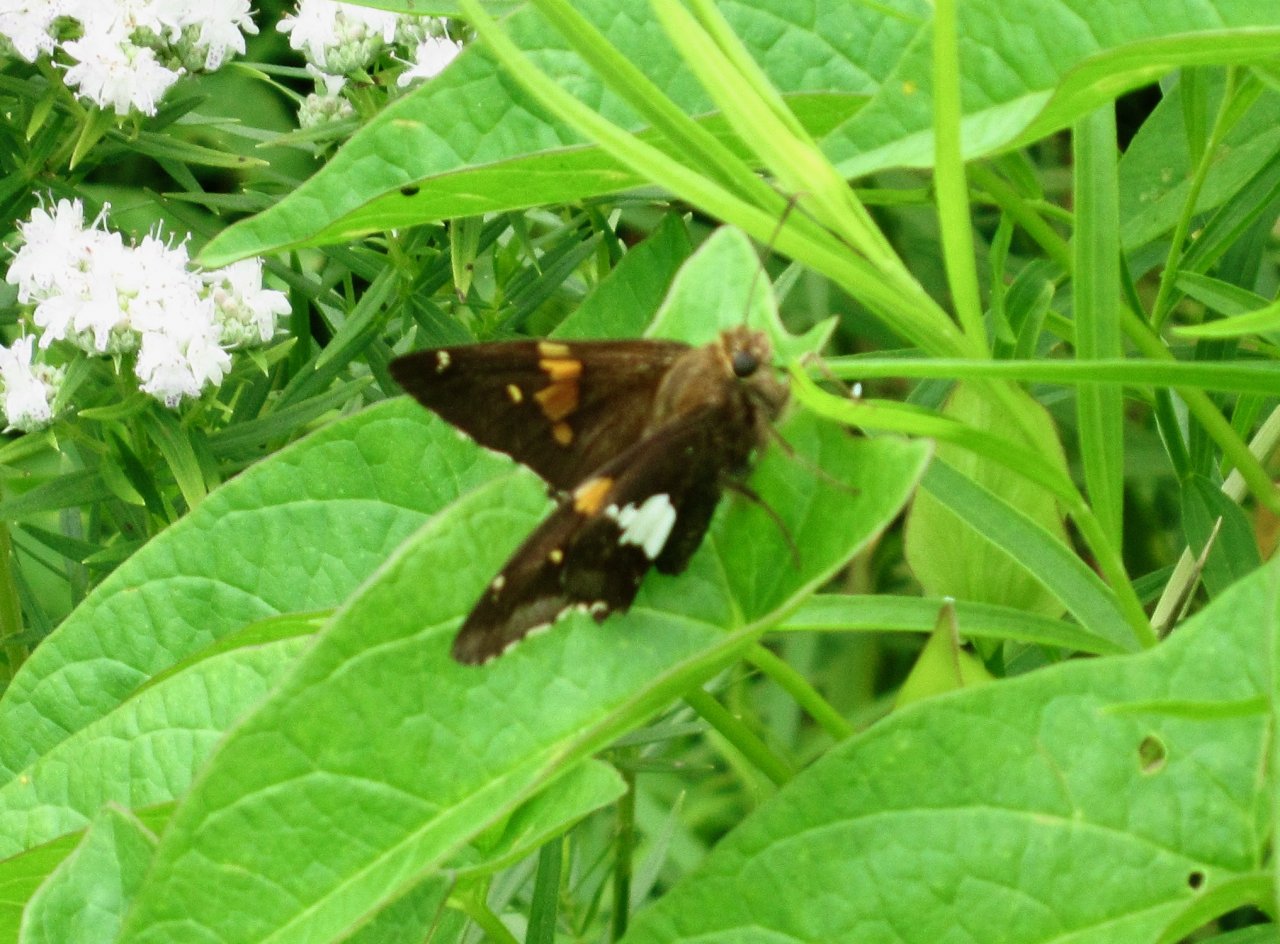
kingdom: Animalia
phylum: Arthropoda
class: Insecta
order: Lepidoptera
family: Hesperiidae
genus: Epargyreus
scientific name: Epargyreus clarus
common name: Silver-spotted Skipper
